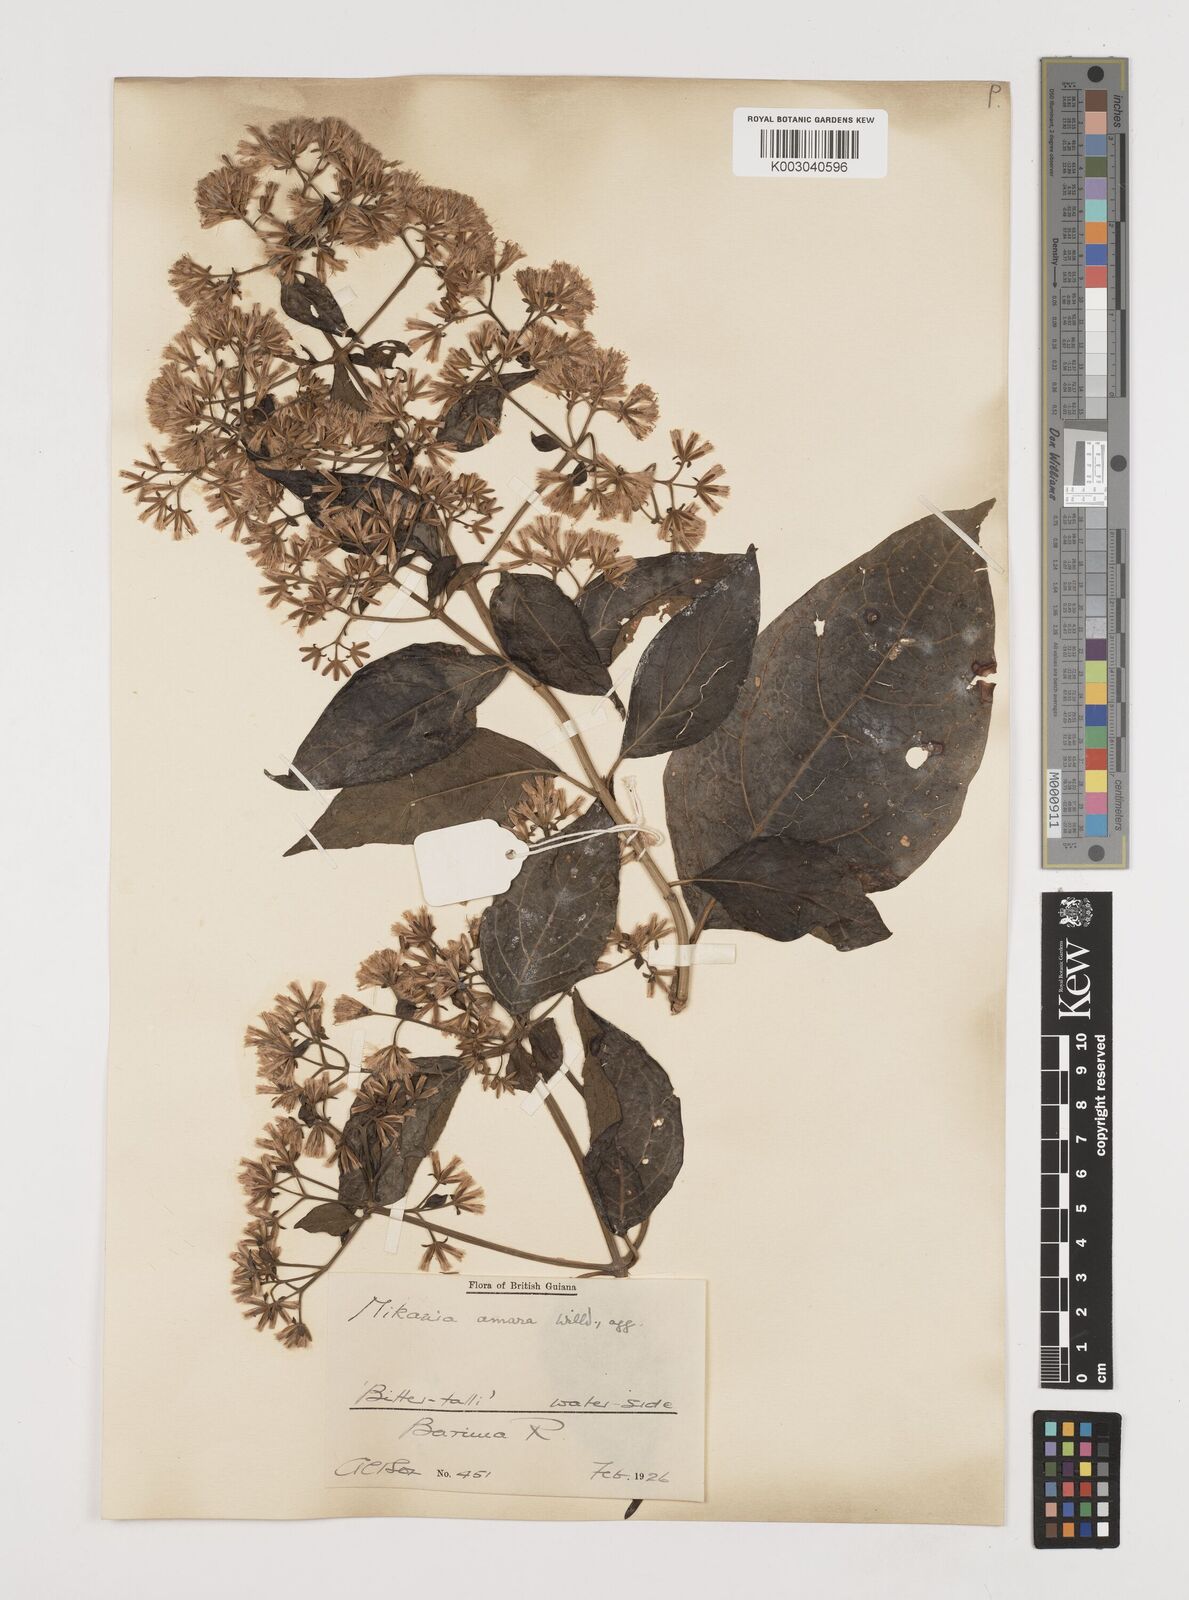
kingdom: Plantae
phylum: Tracheophyta
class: Magnoliopsida
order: Asterales
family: Asteraceae
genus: Mikania
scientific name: Mikania trinitaria
